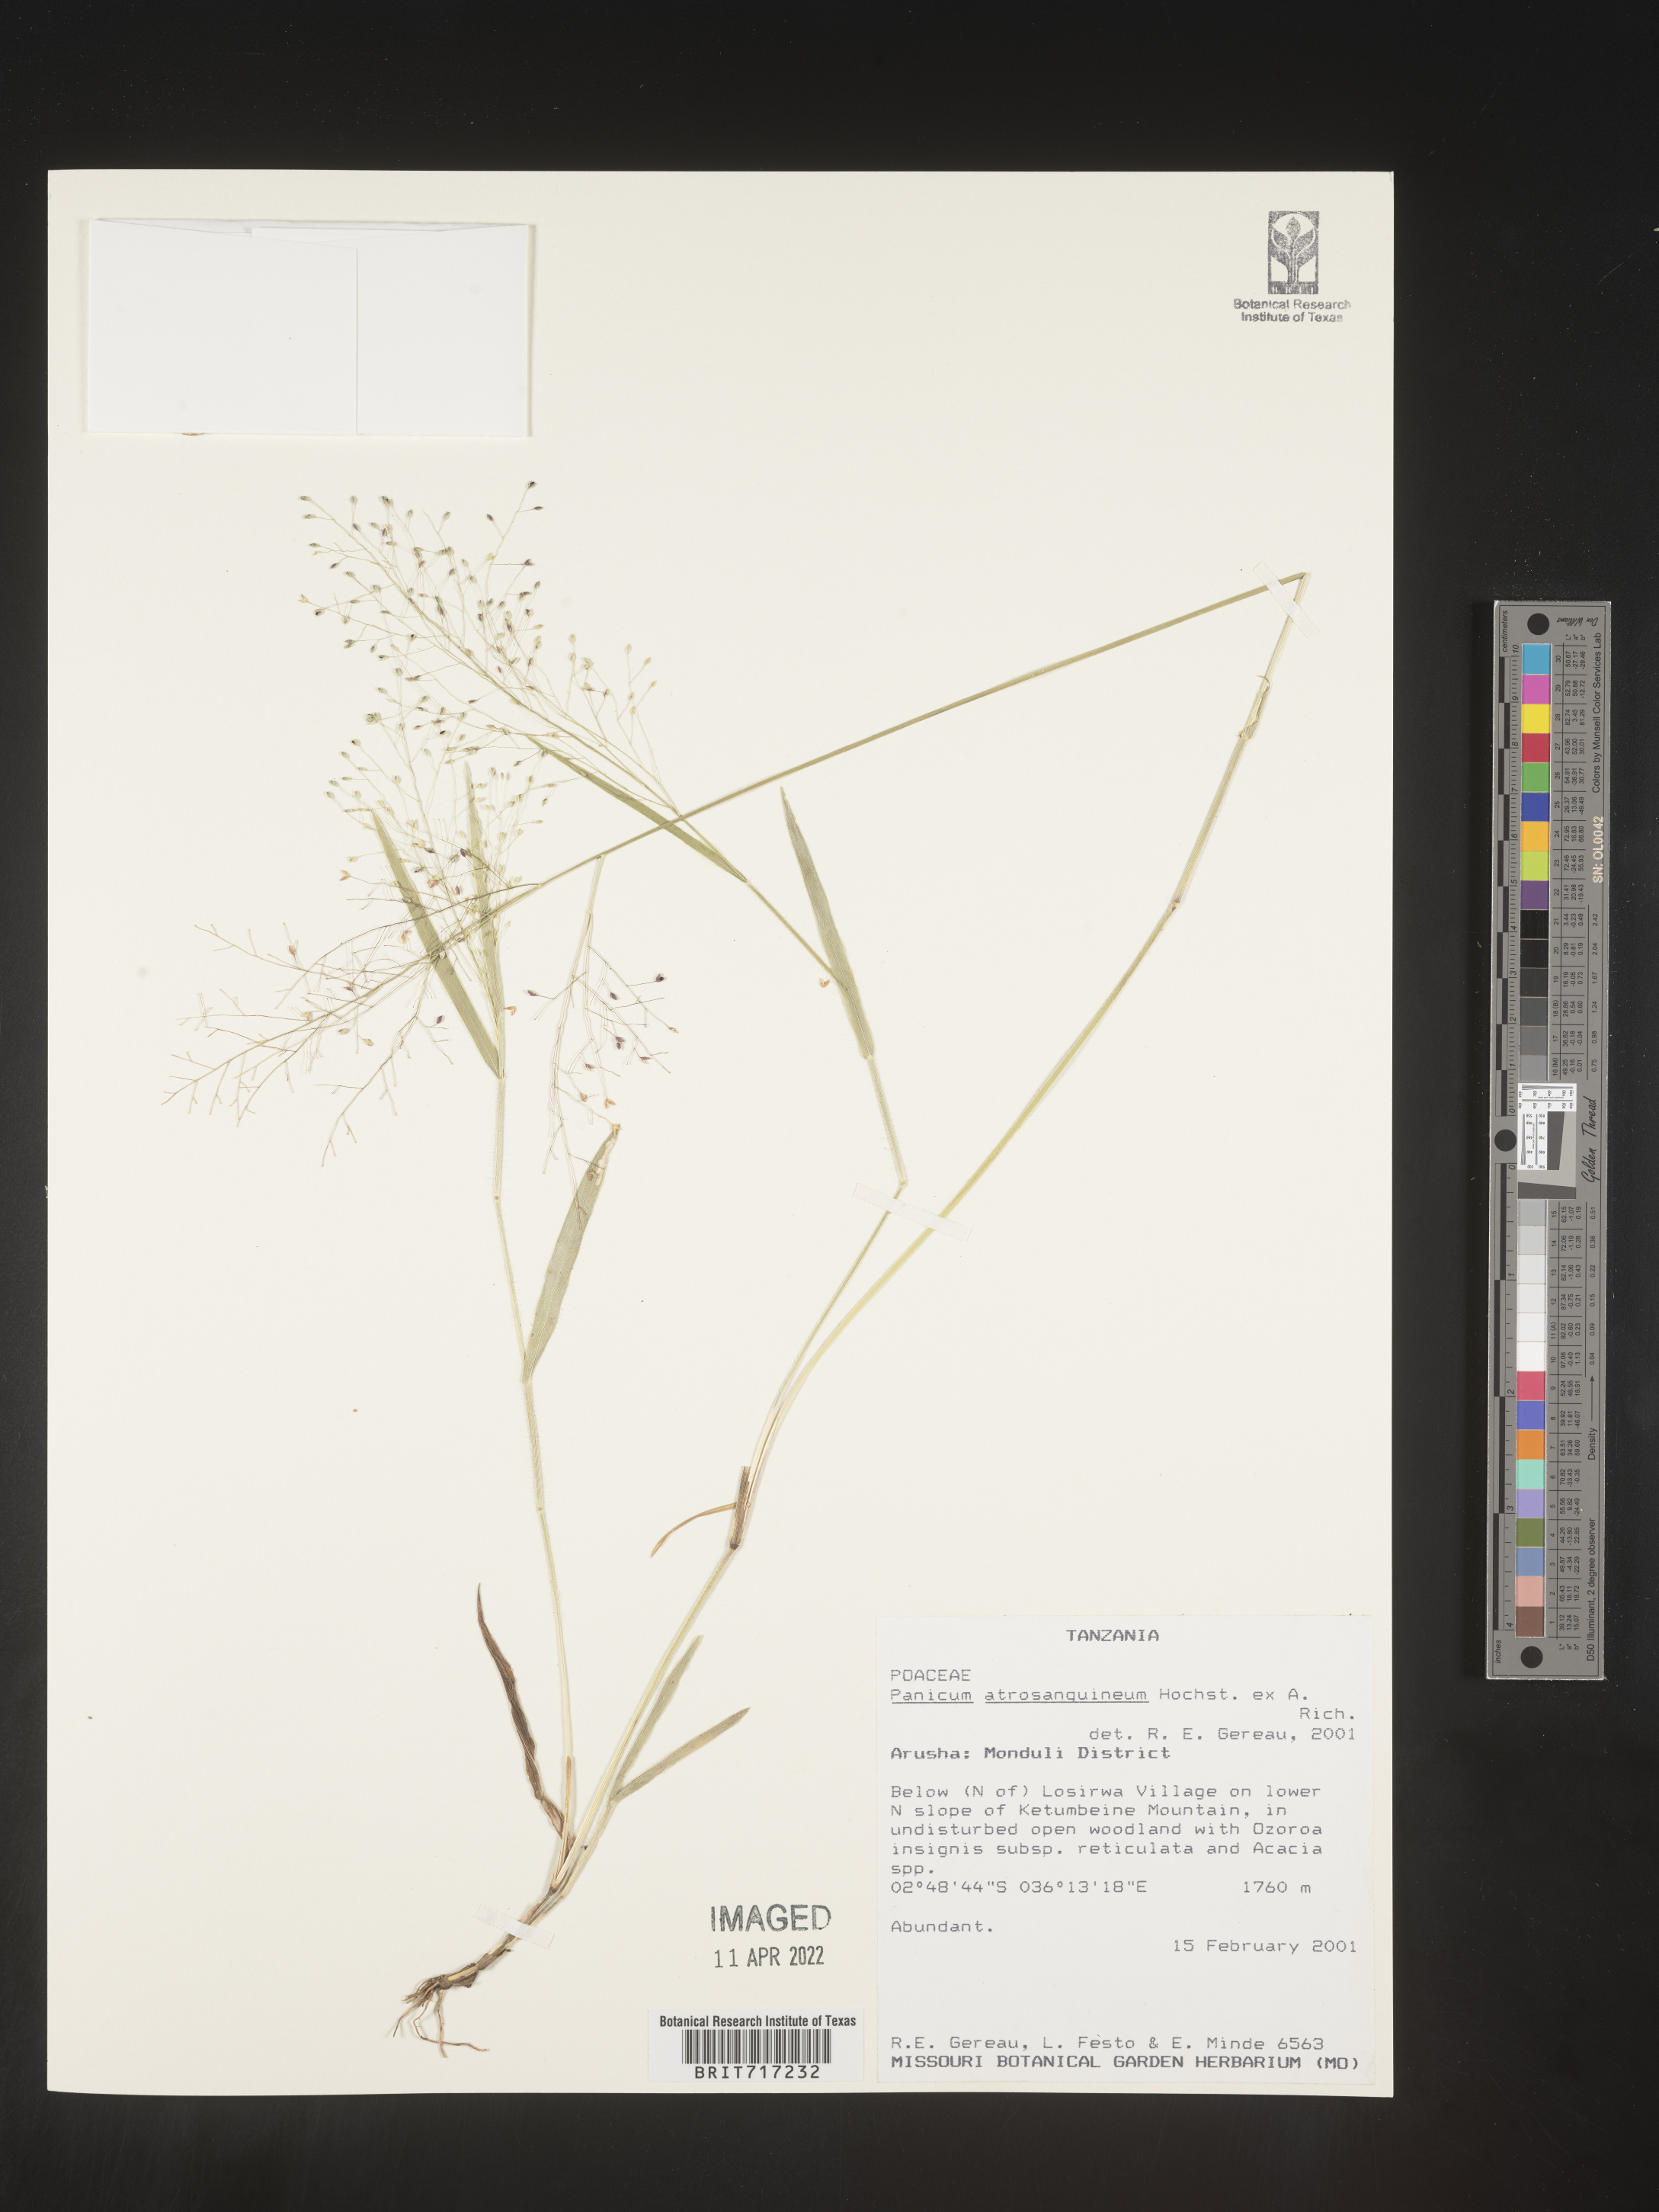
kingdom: Plantae
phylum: Tracheophyta
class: Liliopsida
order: Poales
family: Poaceae
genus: Panicum
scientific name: Panicum
